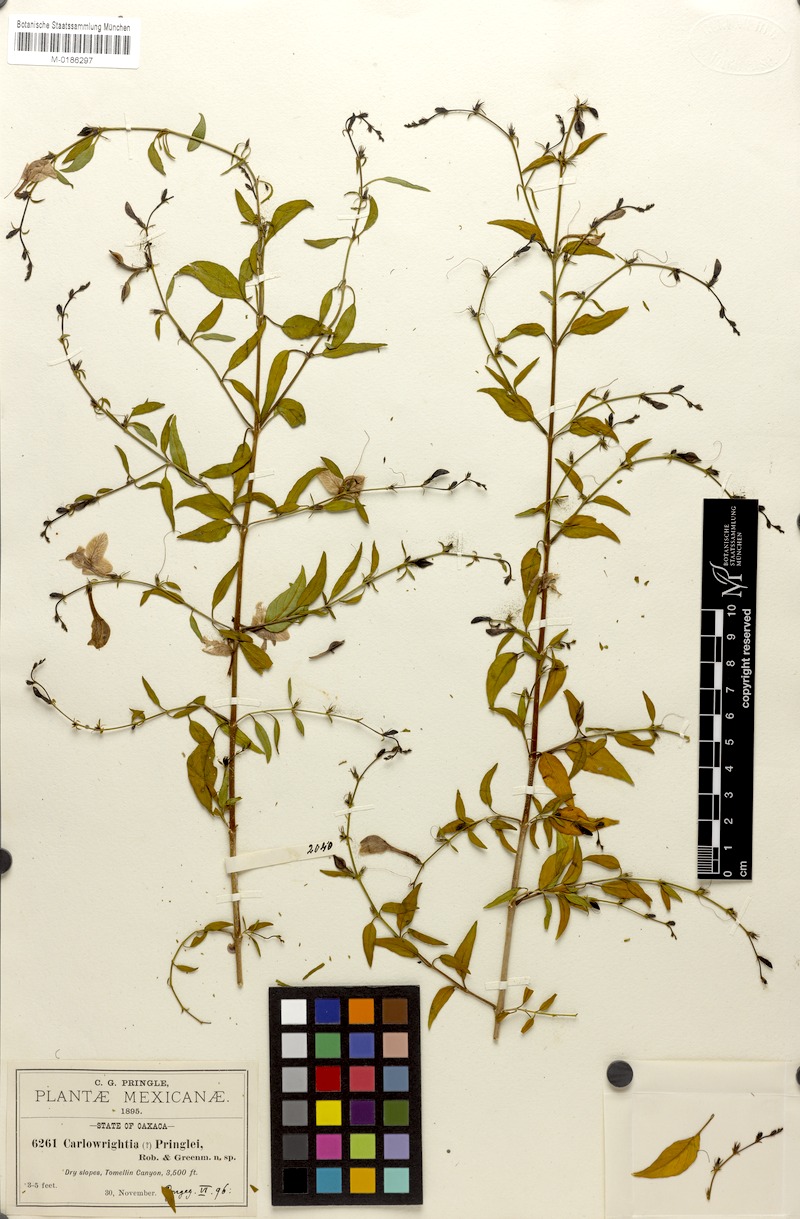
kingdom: Plantae
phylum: Tracheophyta
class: Magnoliopsida
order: Lamiales
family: Acanthaceae
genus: Carlowrightia
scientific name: Carlowrightia pringlei
